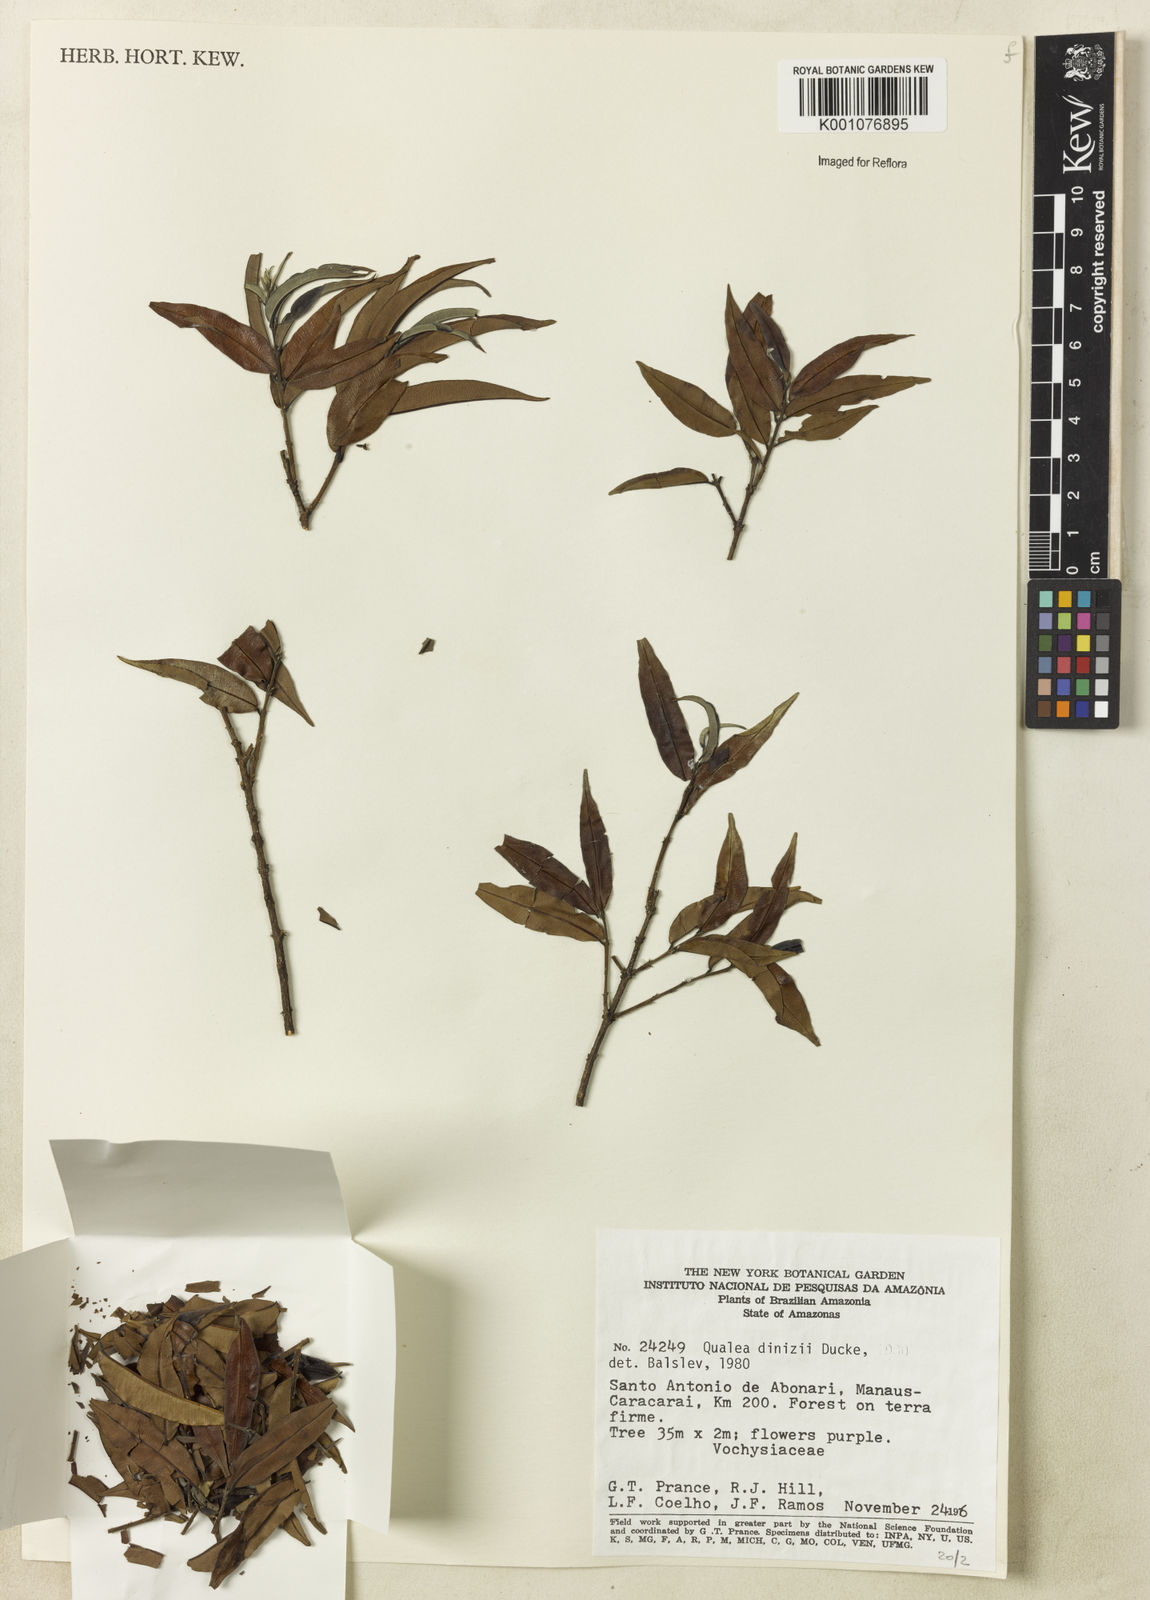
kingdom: Plantae
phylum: Tracheophyta
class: Magnoliopsida
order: Myrtales
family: Vochysiaceae
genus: Qualea
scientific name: Qualea dinizii
